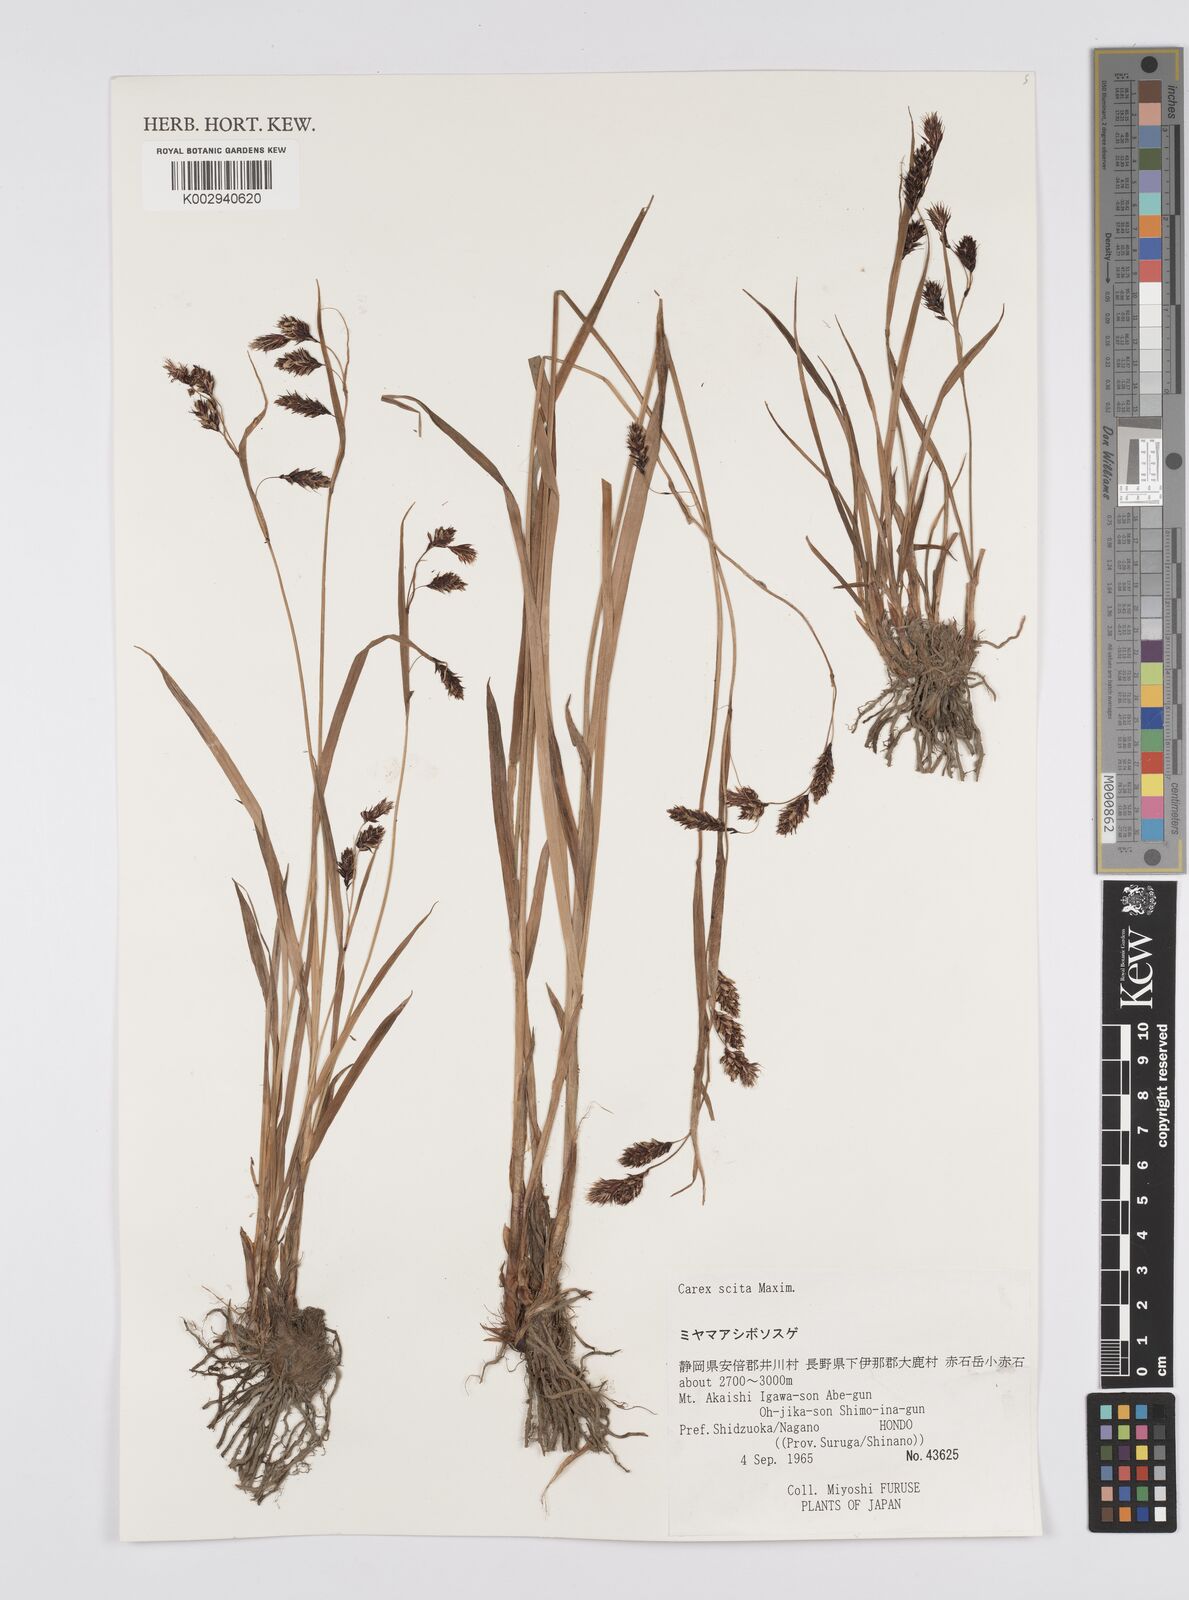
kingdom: Plantae
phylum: Tracheophyta
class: Liliopsida
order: Poales
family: Cyperaceae
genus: Carex
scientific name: Carex scita
